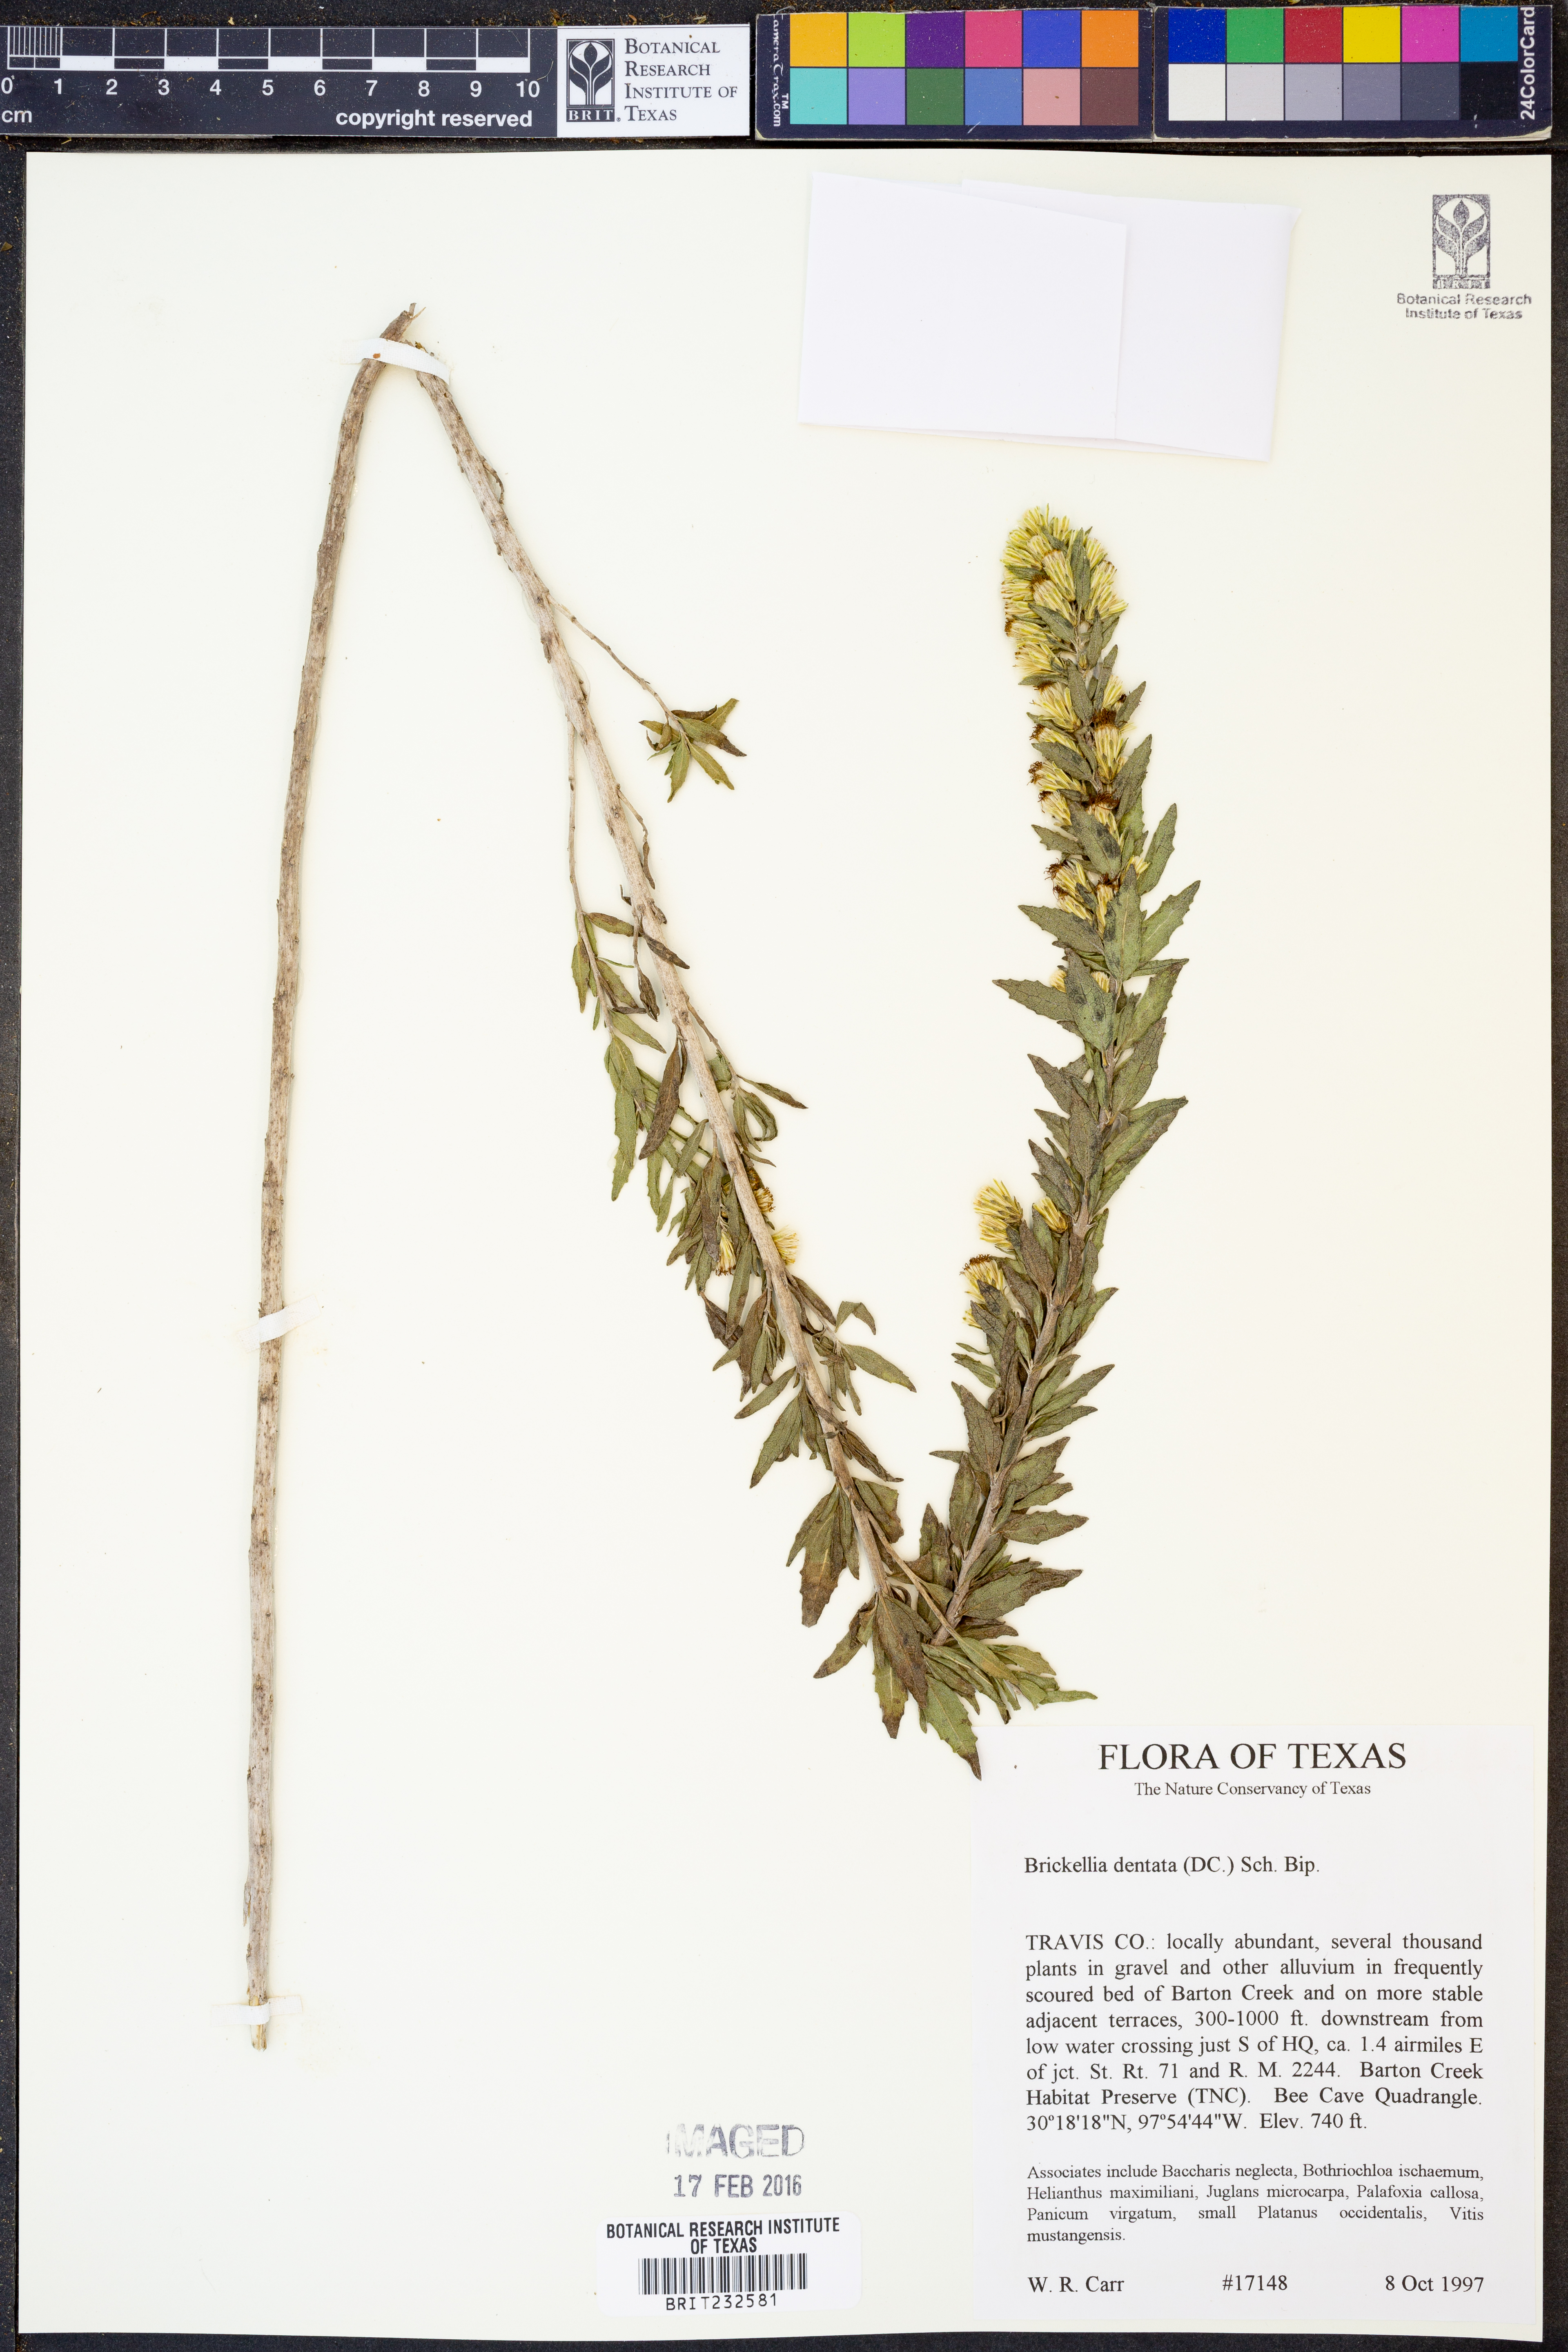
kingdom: Plantae
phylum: Tracheophyta
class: Magnoliopsida
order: Asterales
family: Asteraceae
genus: Brickellia
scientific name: Brickellia dentata
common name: Leafy brickellbush
